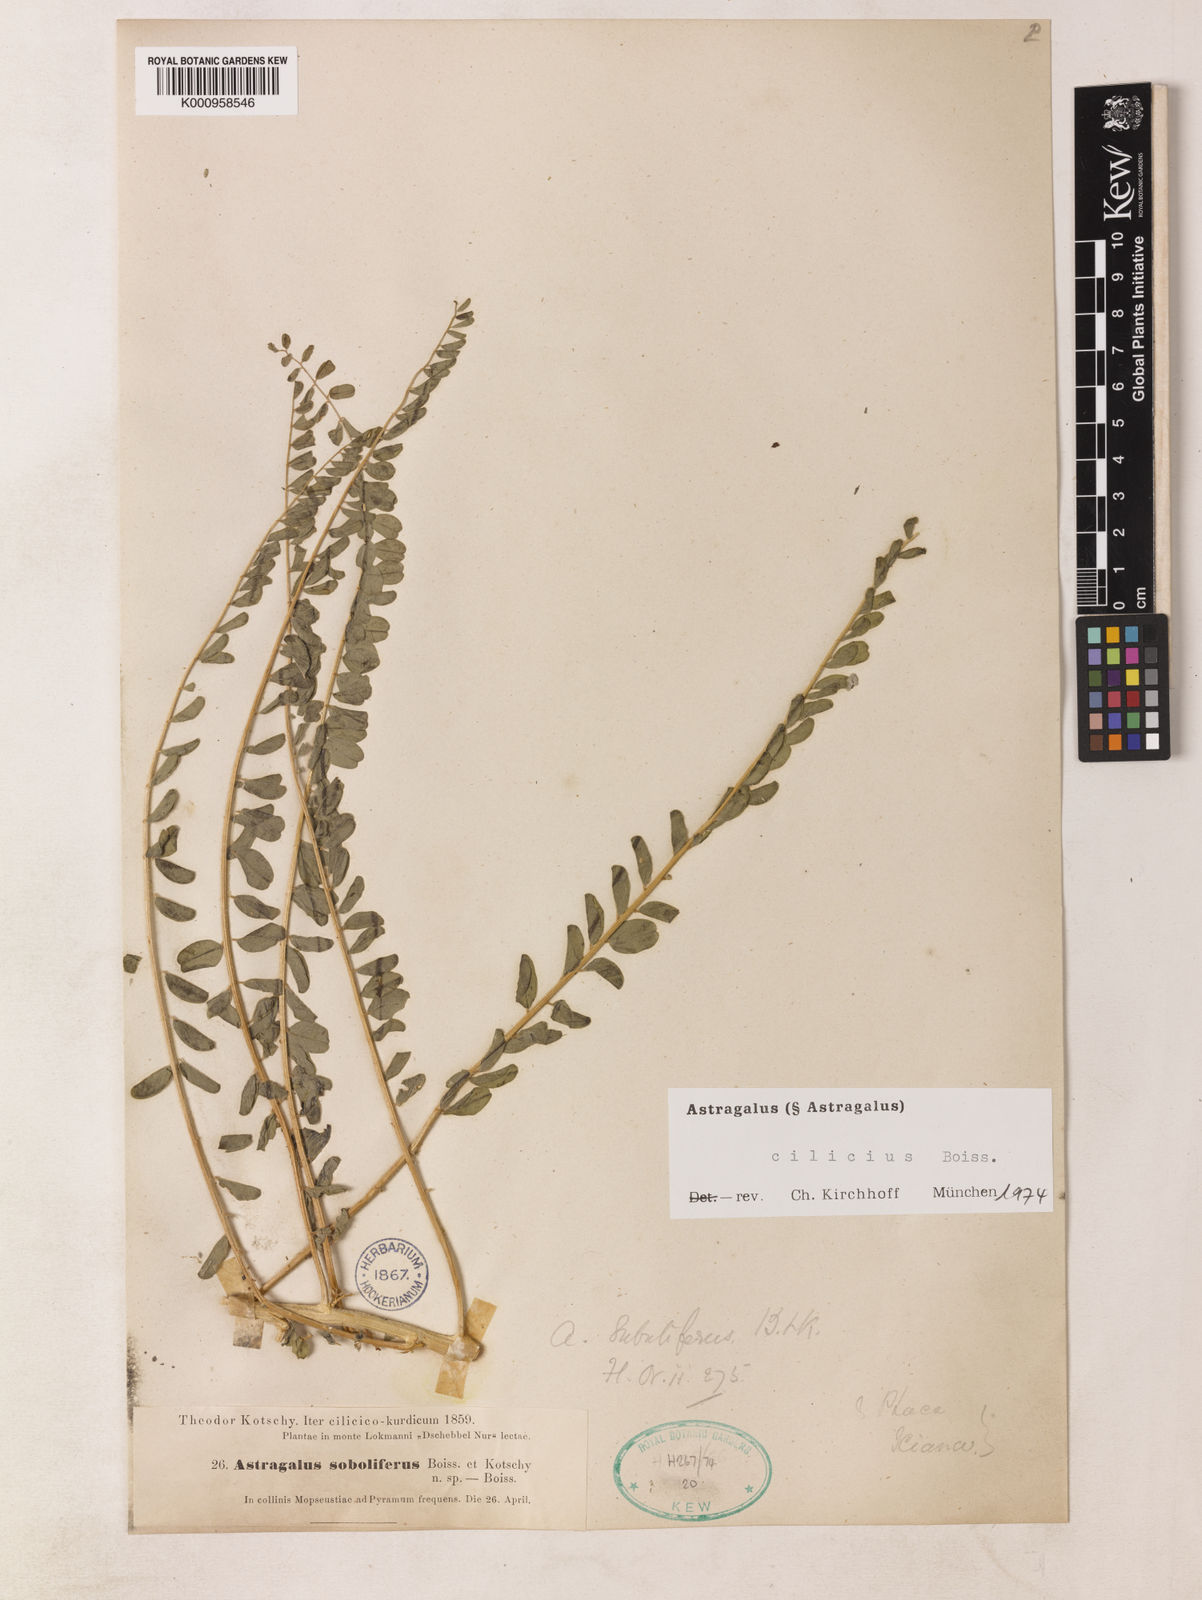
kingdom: Plantae
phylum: Tracheophyta
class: Magnoliopsida
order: Fabales
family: Fabaceae
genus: Astragalus
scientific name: Astragalus cilicius
